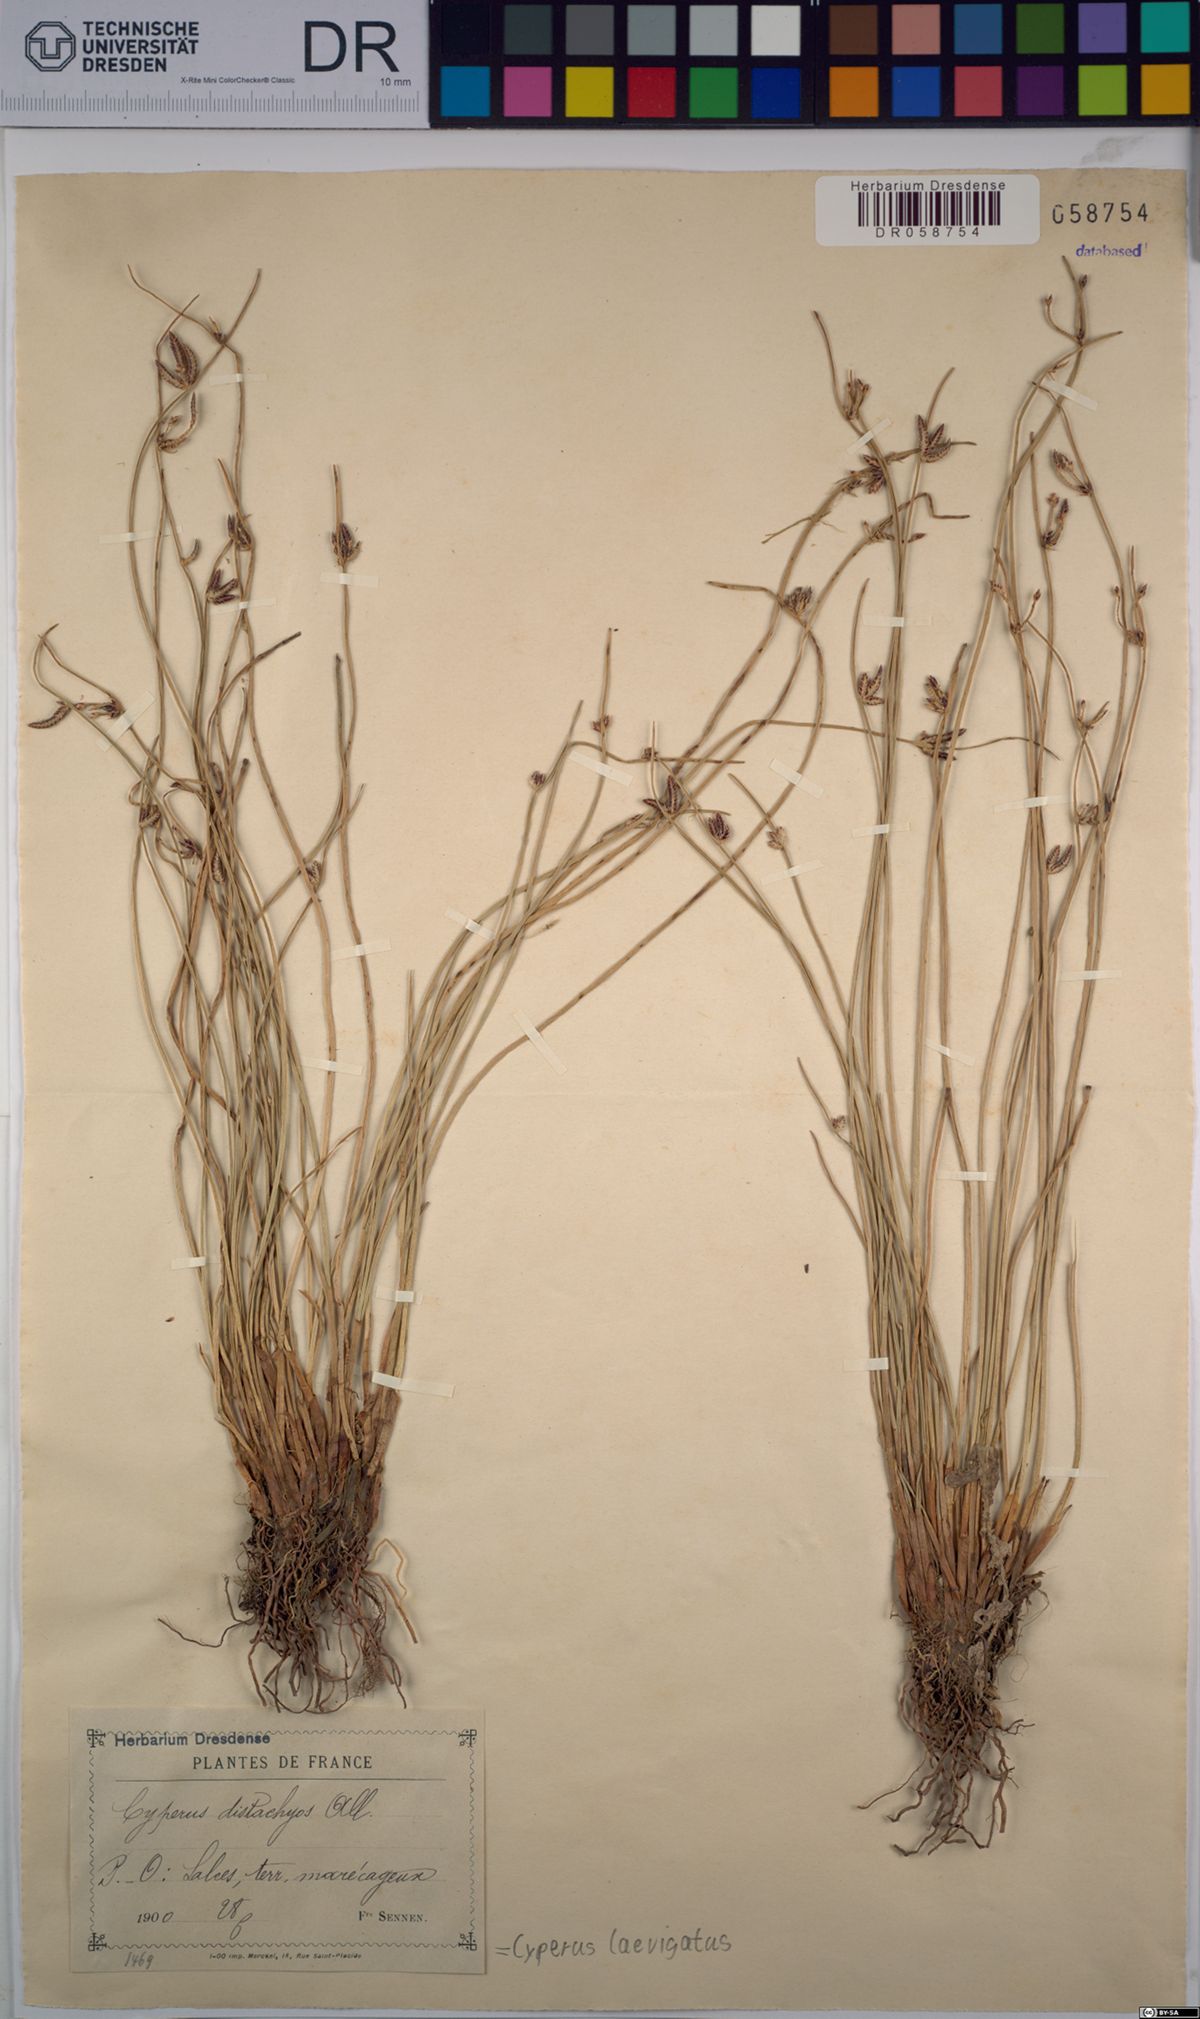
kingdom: Plantae
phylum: Tracheophyta
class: Liliopsida
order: Poales
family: Cyperaceae
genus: Cyperus
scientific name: Cyperus laevigatus
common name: Smooth flat sedge
